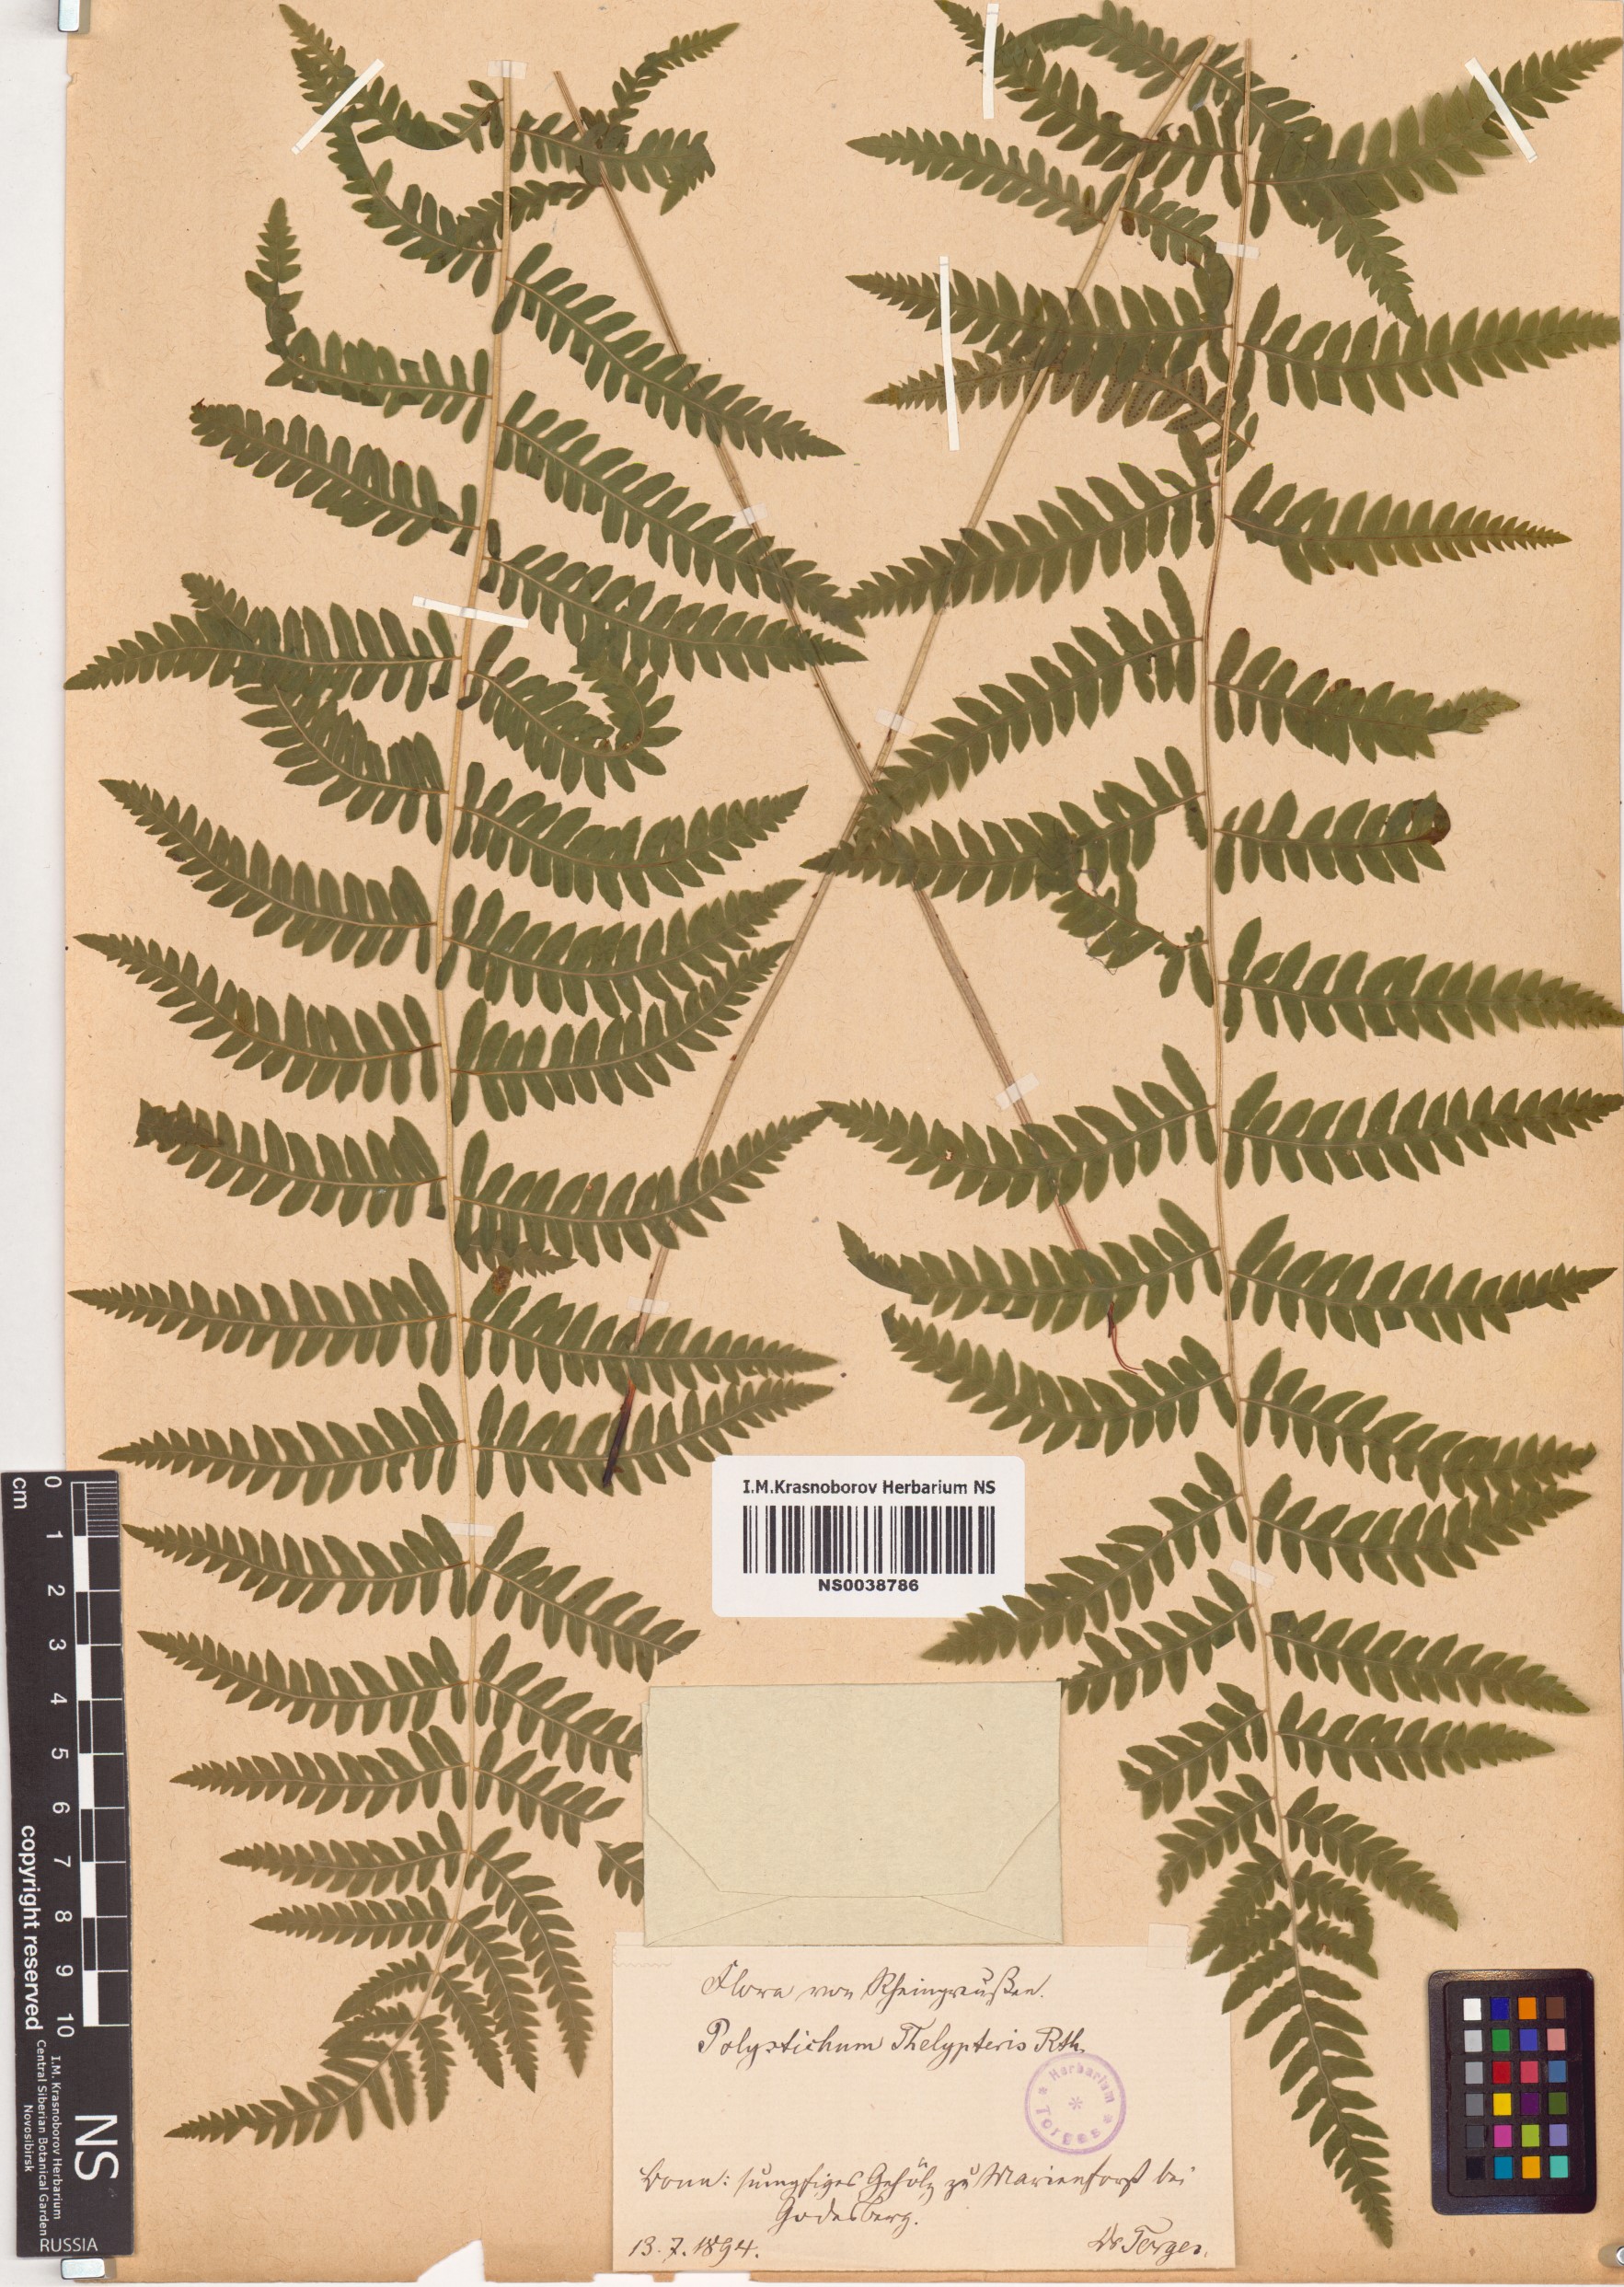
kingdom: Plantae
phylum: Tracheophyta
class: Polypodiopsida
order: Polypodiales
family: Thelypteridaceae
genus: Thelypteris
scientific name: Thelypteris palustris
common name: Marsh fern
